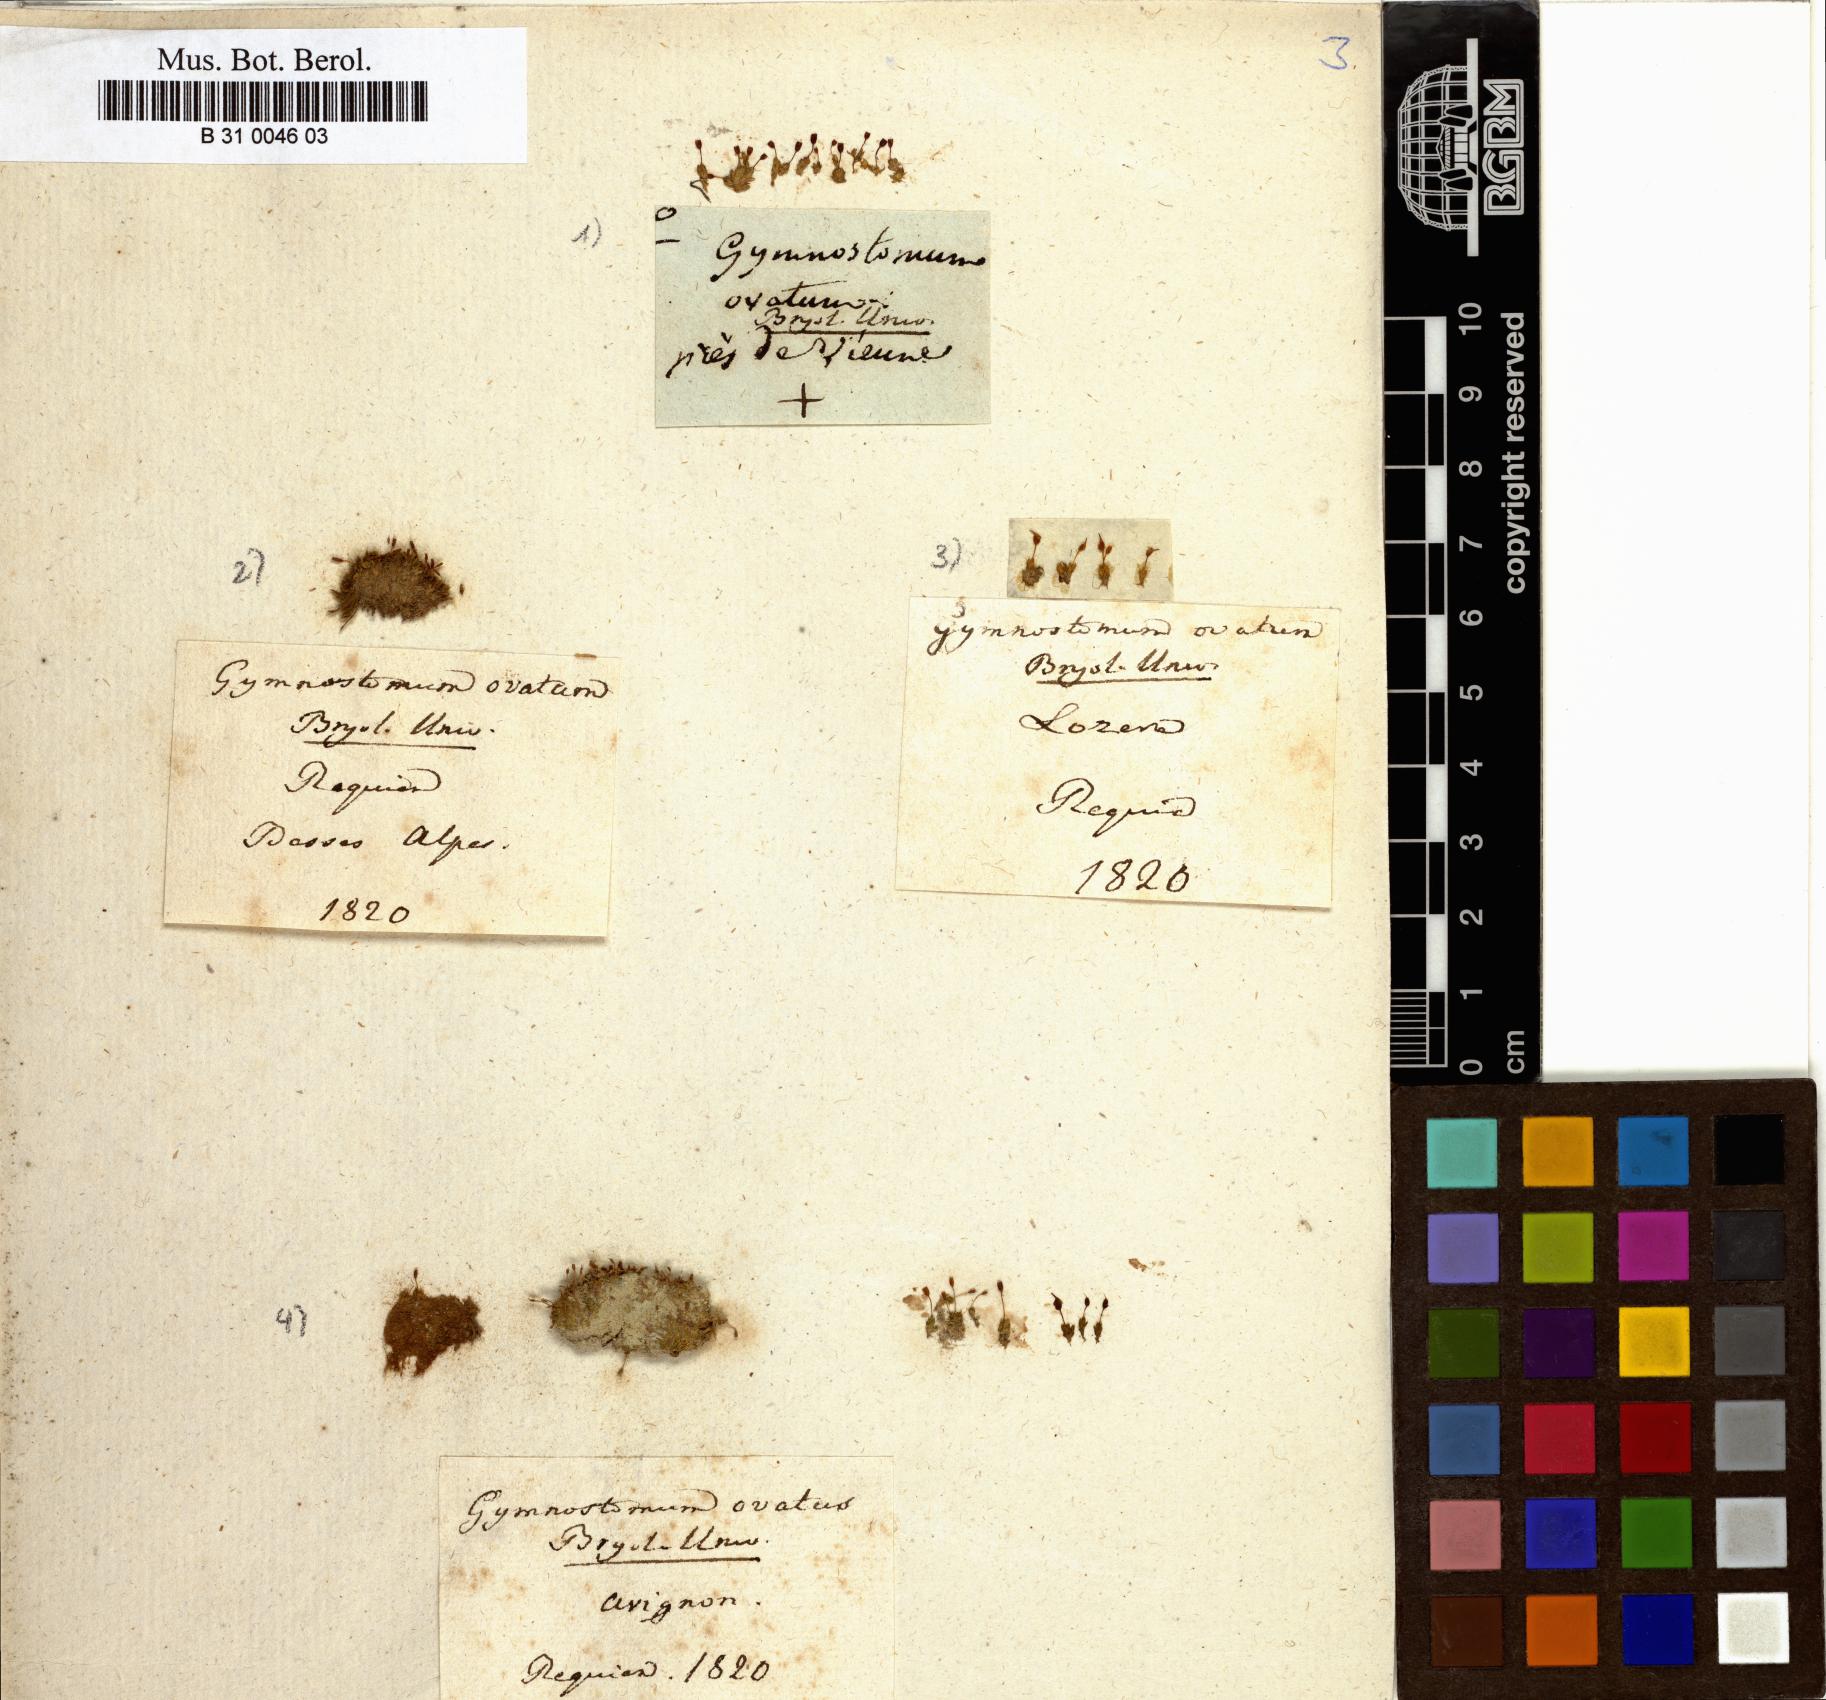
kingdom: Plantae
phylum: Bryophyta
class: Bryopsida
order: Pottiales
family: Pottiaceae
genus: Pterygoneurum
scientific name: Pterygoneurum ovatum
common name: Ovate pterygoneurum
